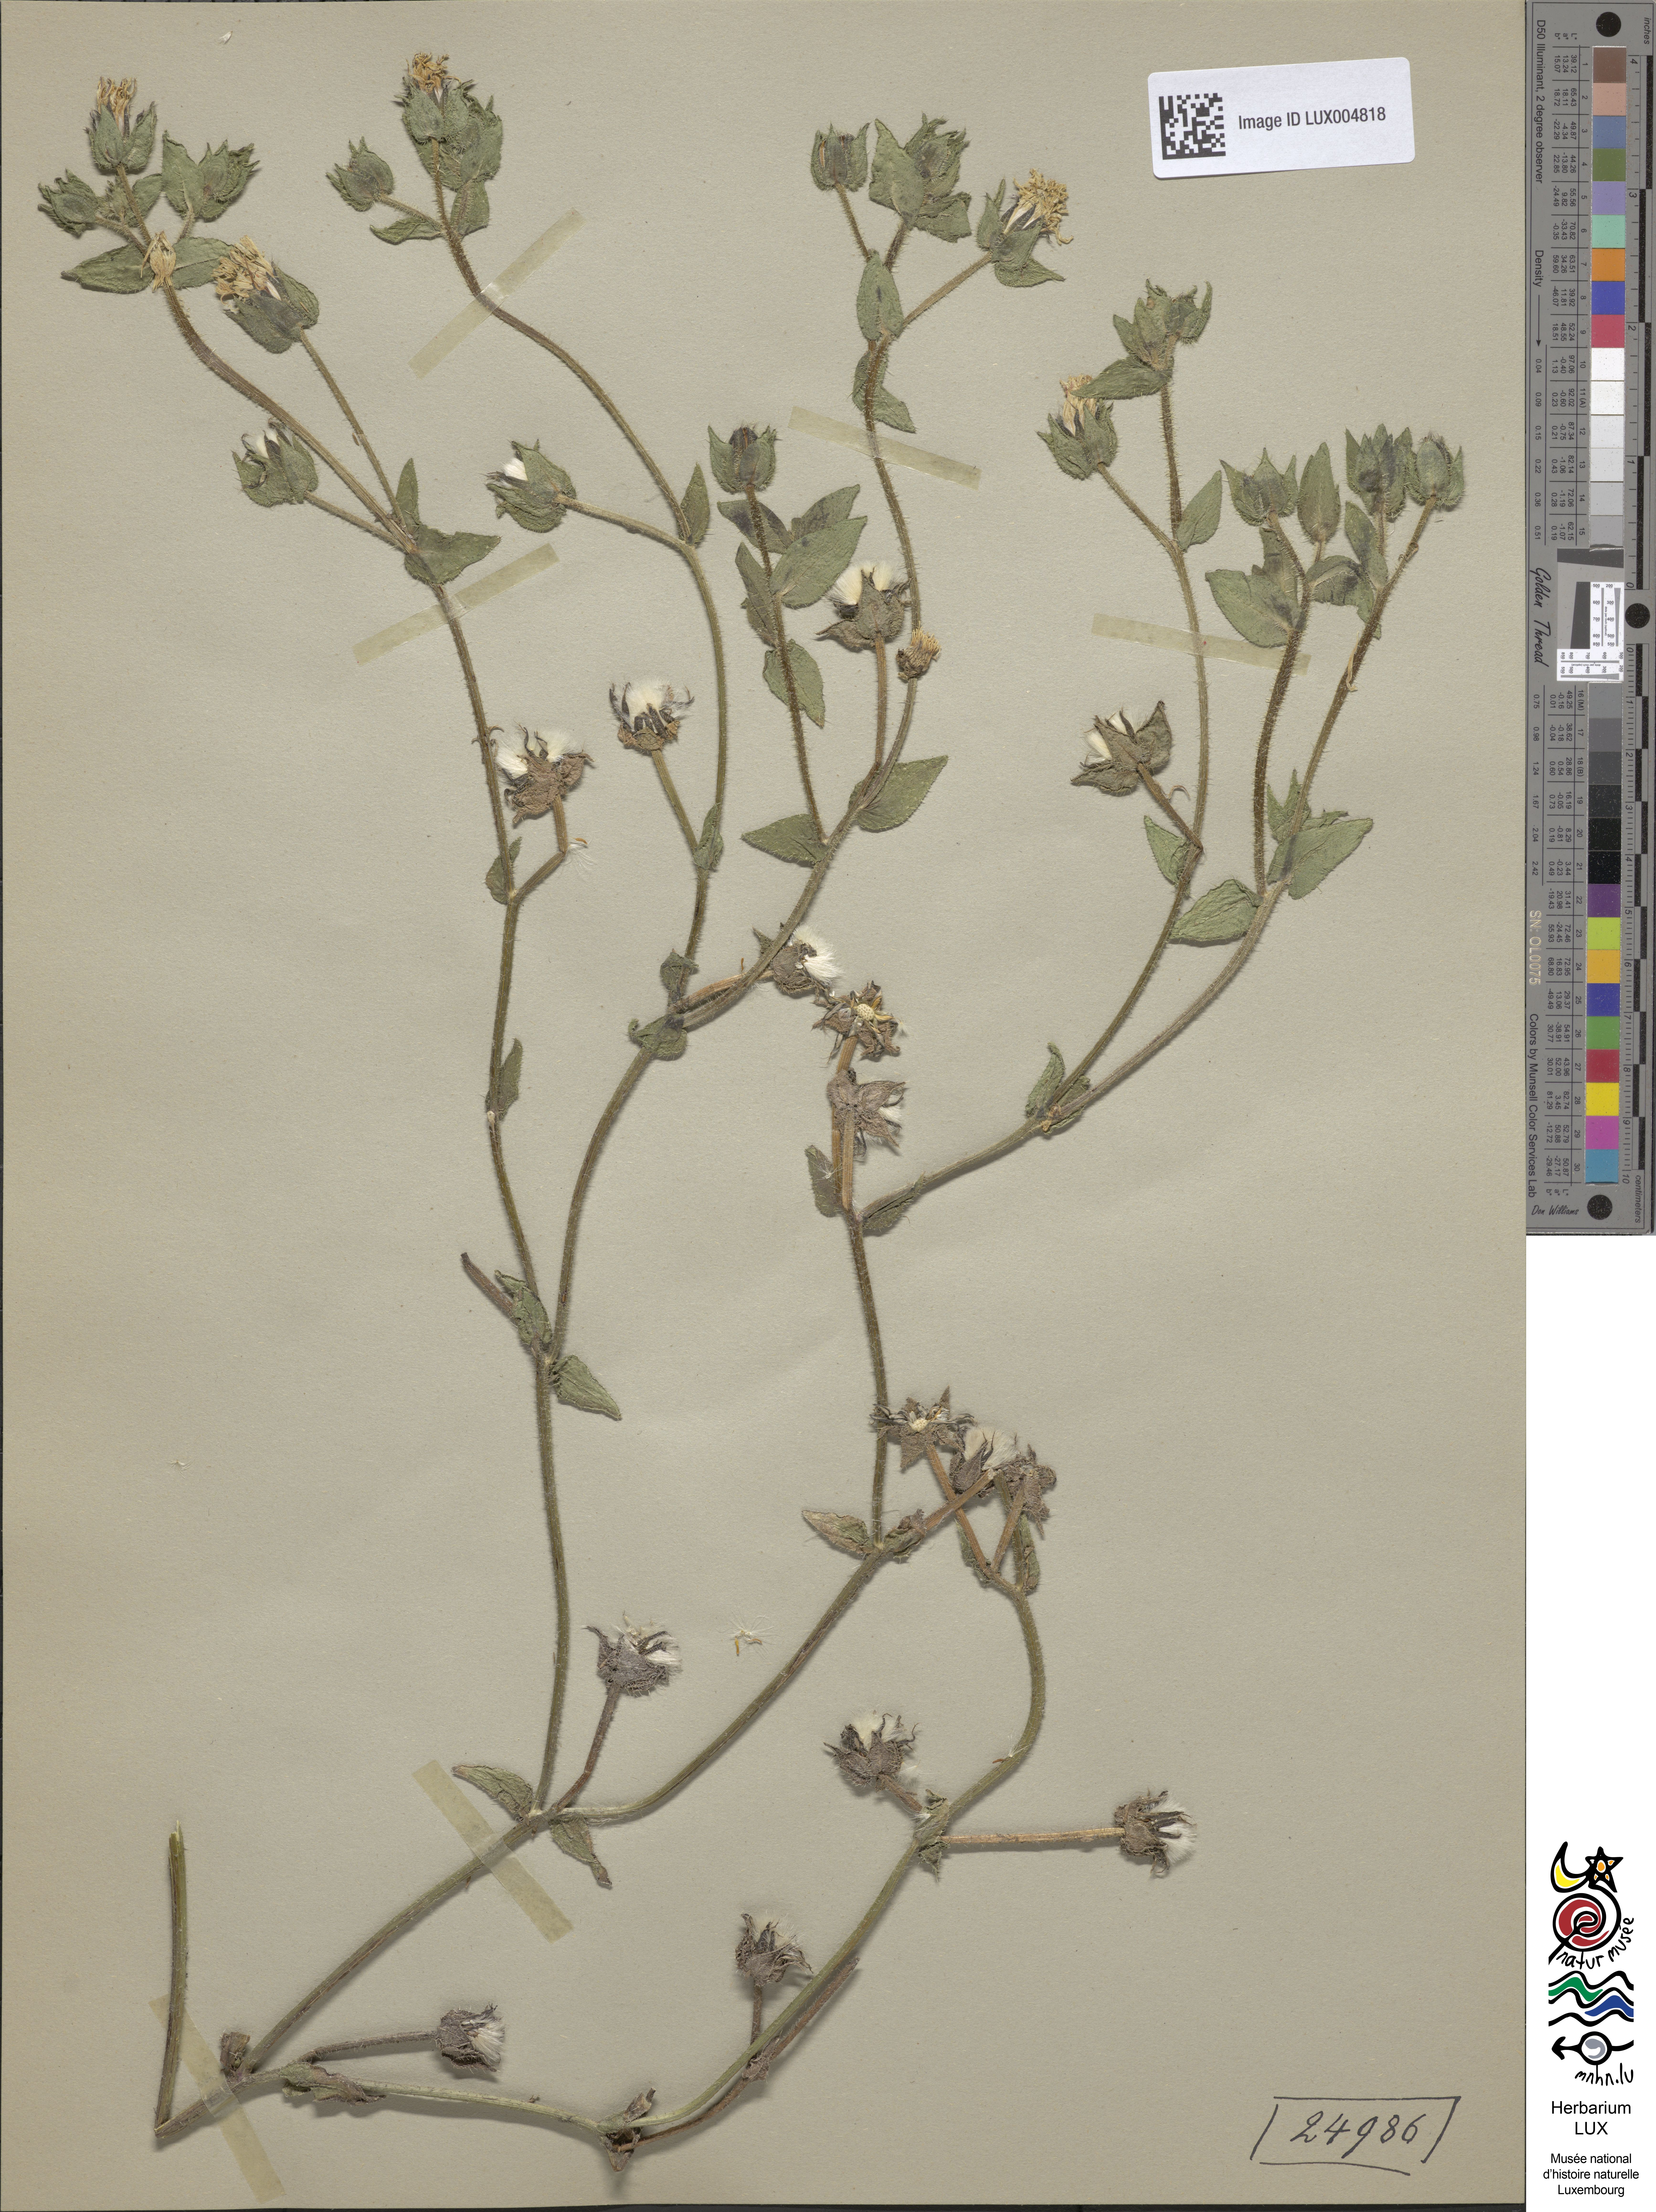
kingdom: Plantae
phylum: Tracheophyta
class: Magnoliopsida
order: Asterales
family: Asteraceae
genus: Helminthotheca
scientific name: Helminthotheca echioides
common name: Ox-tongue
